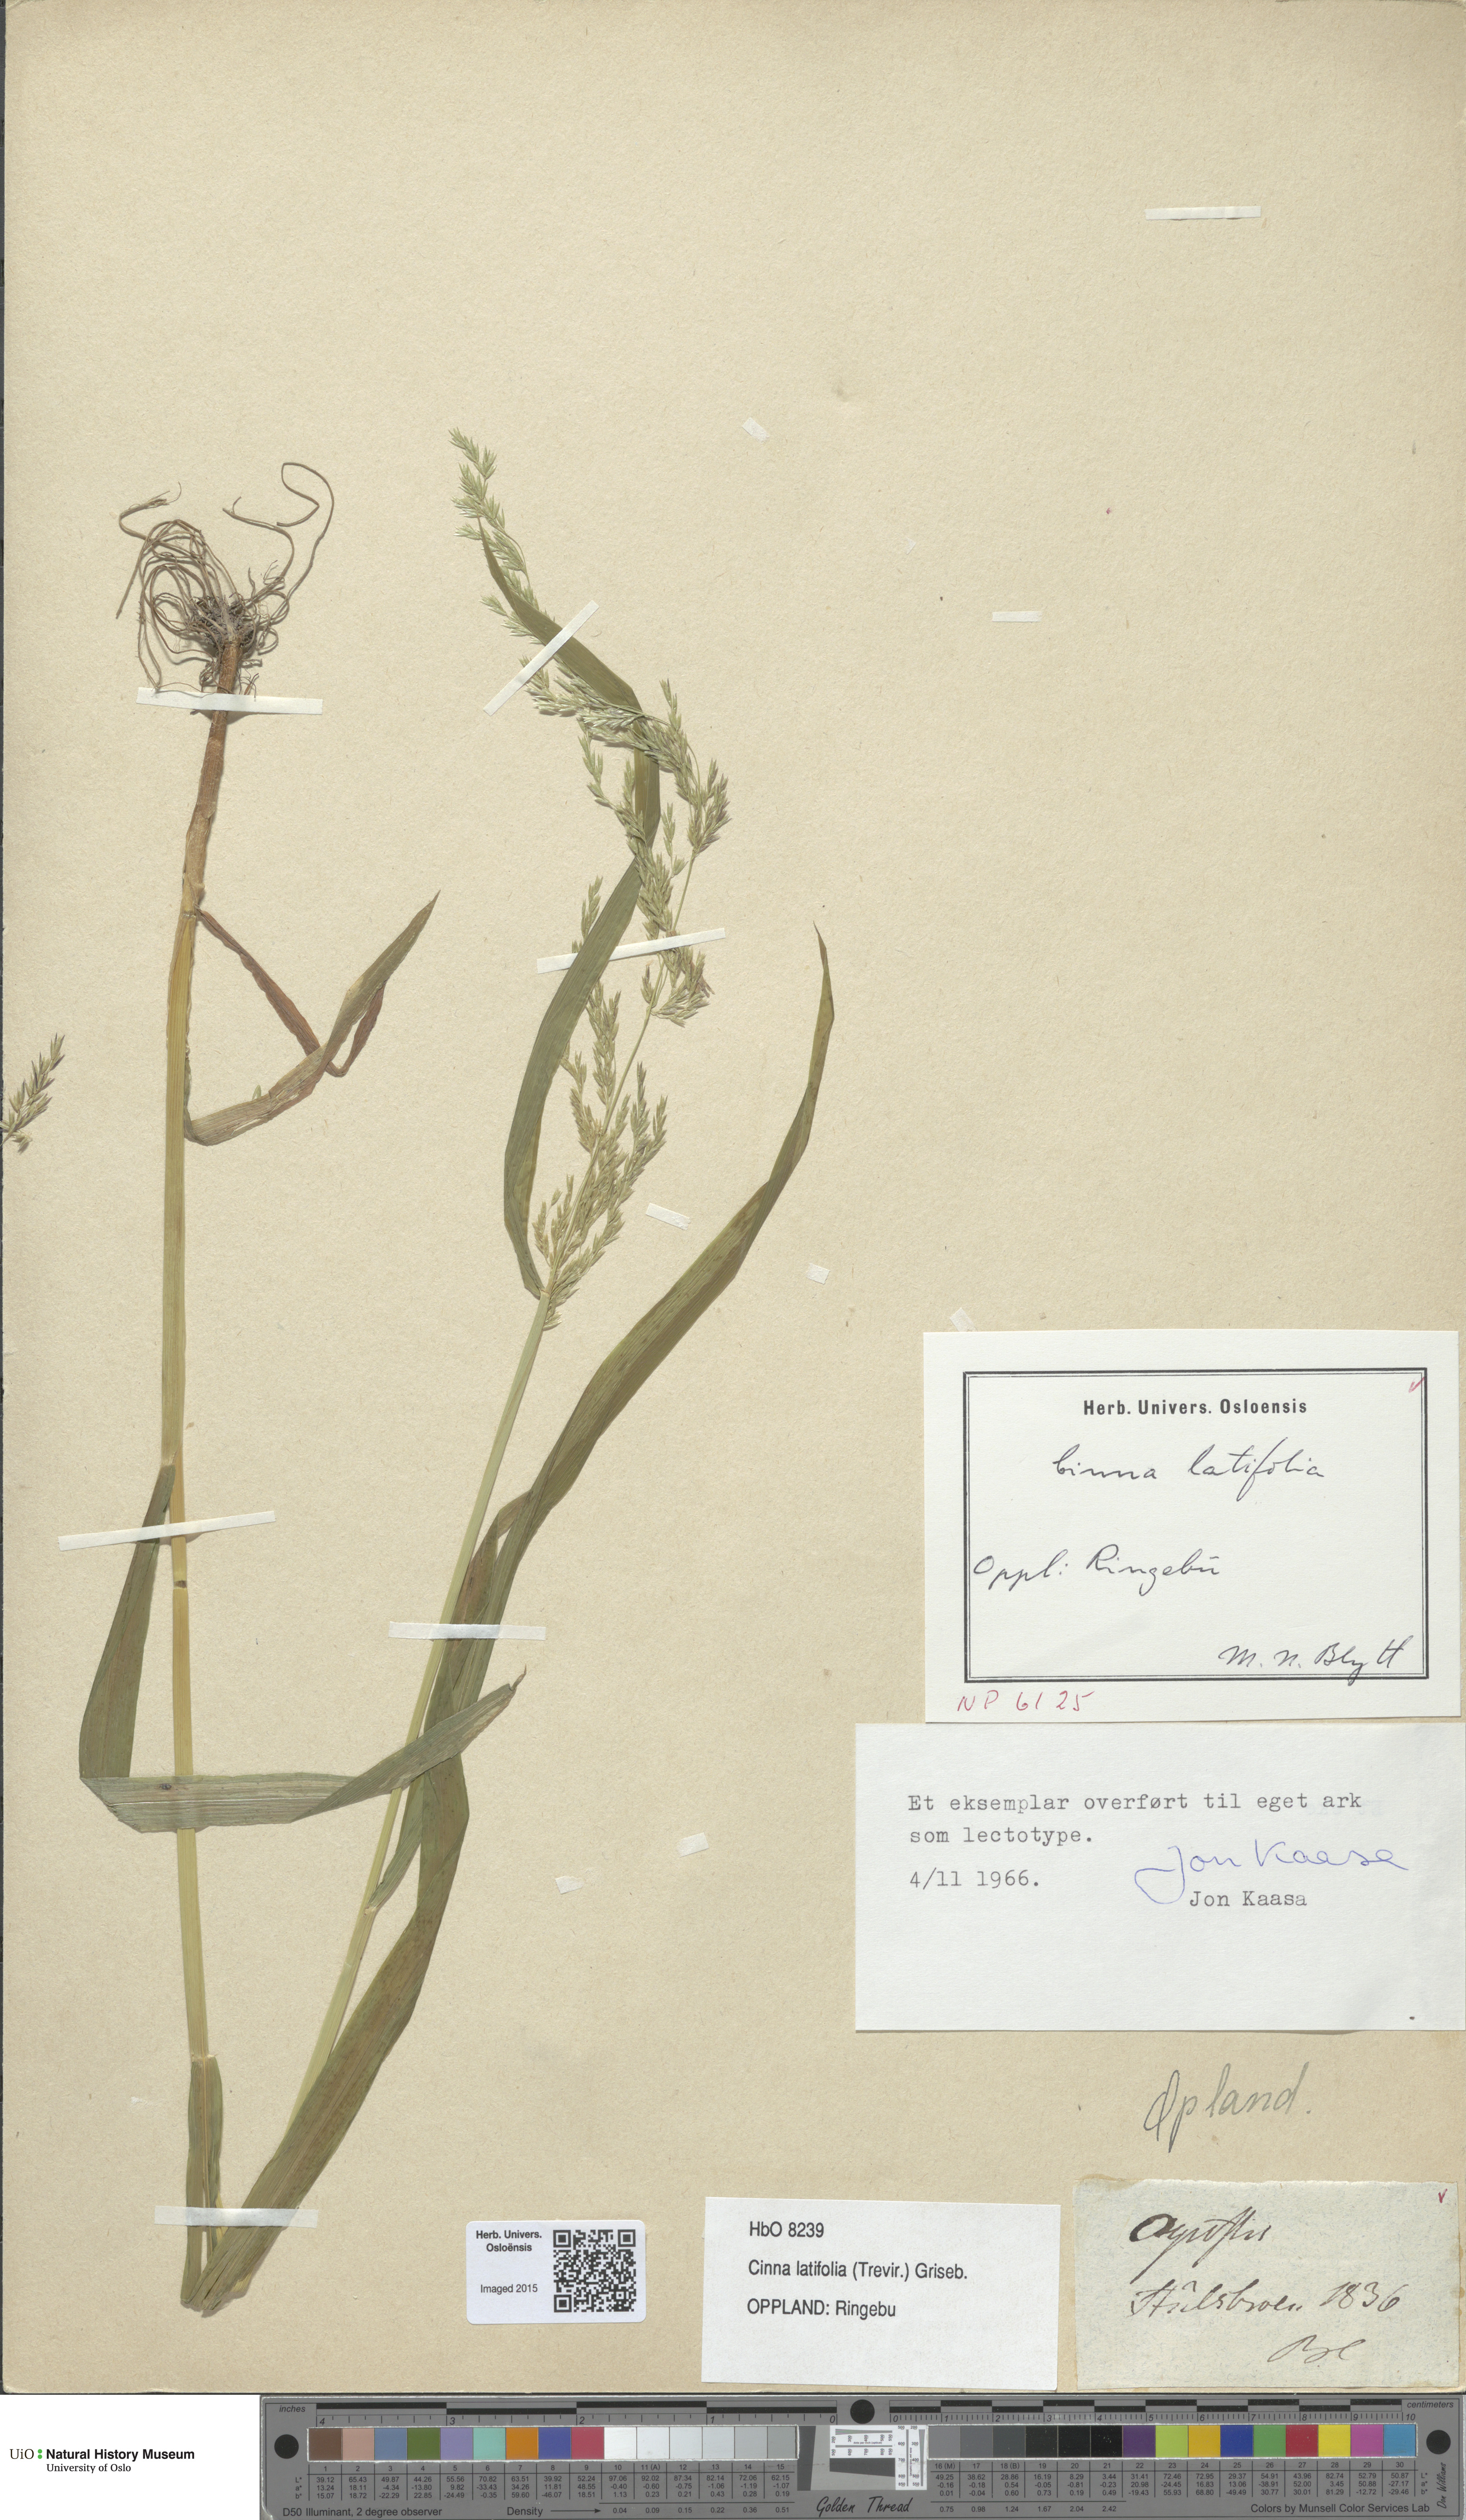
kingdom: Plantae
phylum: Tracheophyta
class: Liliopsida
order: Poales
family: Poaceae
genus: Cinna
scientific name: Cinna latifolia
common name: Drooping woodreed
